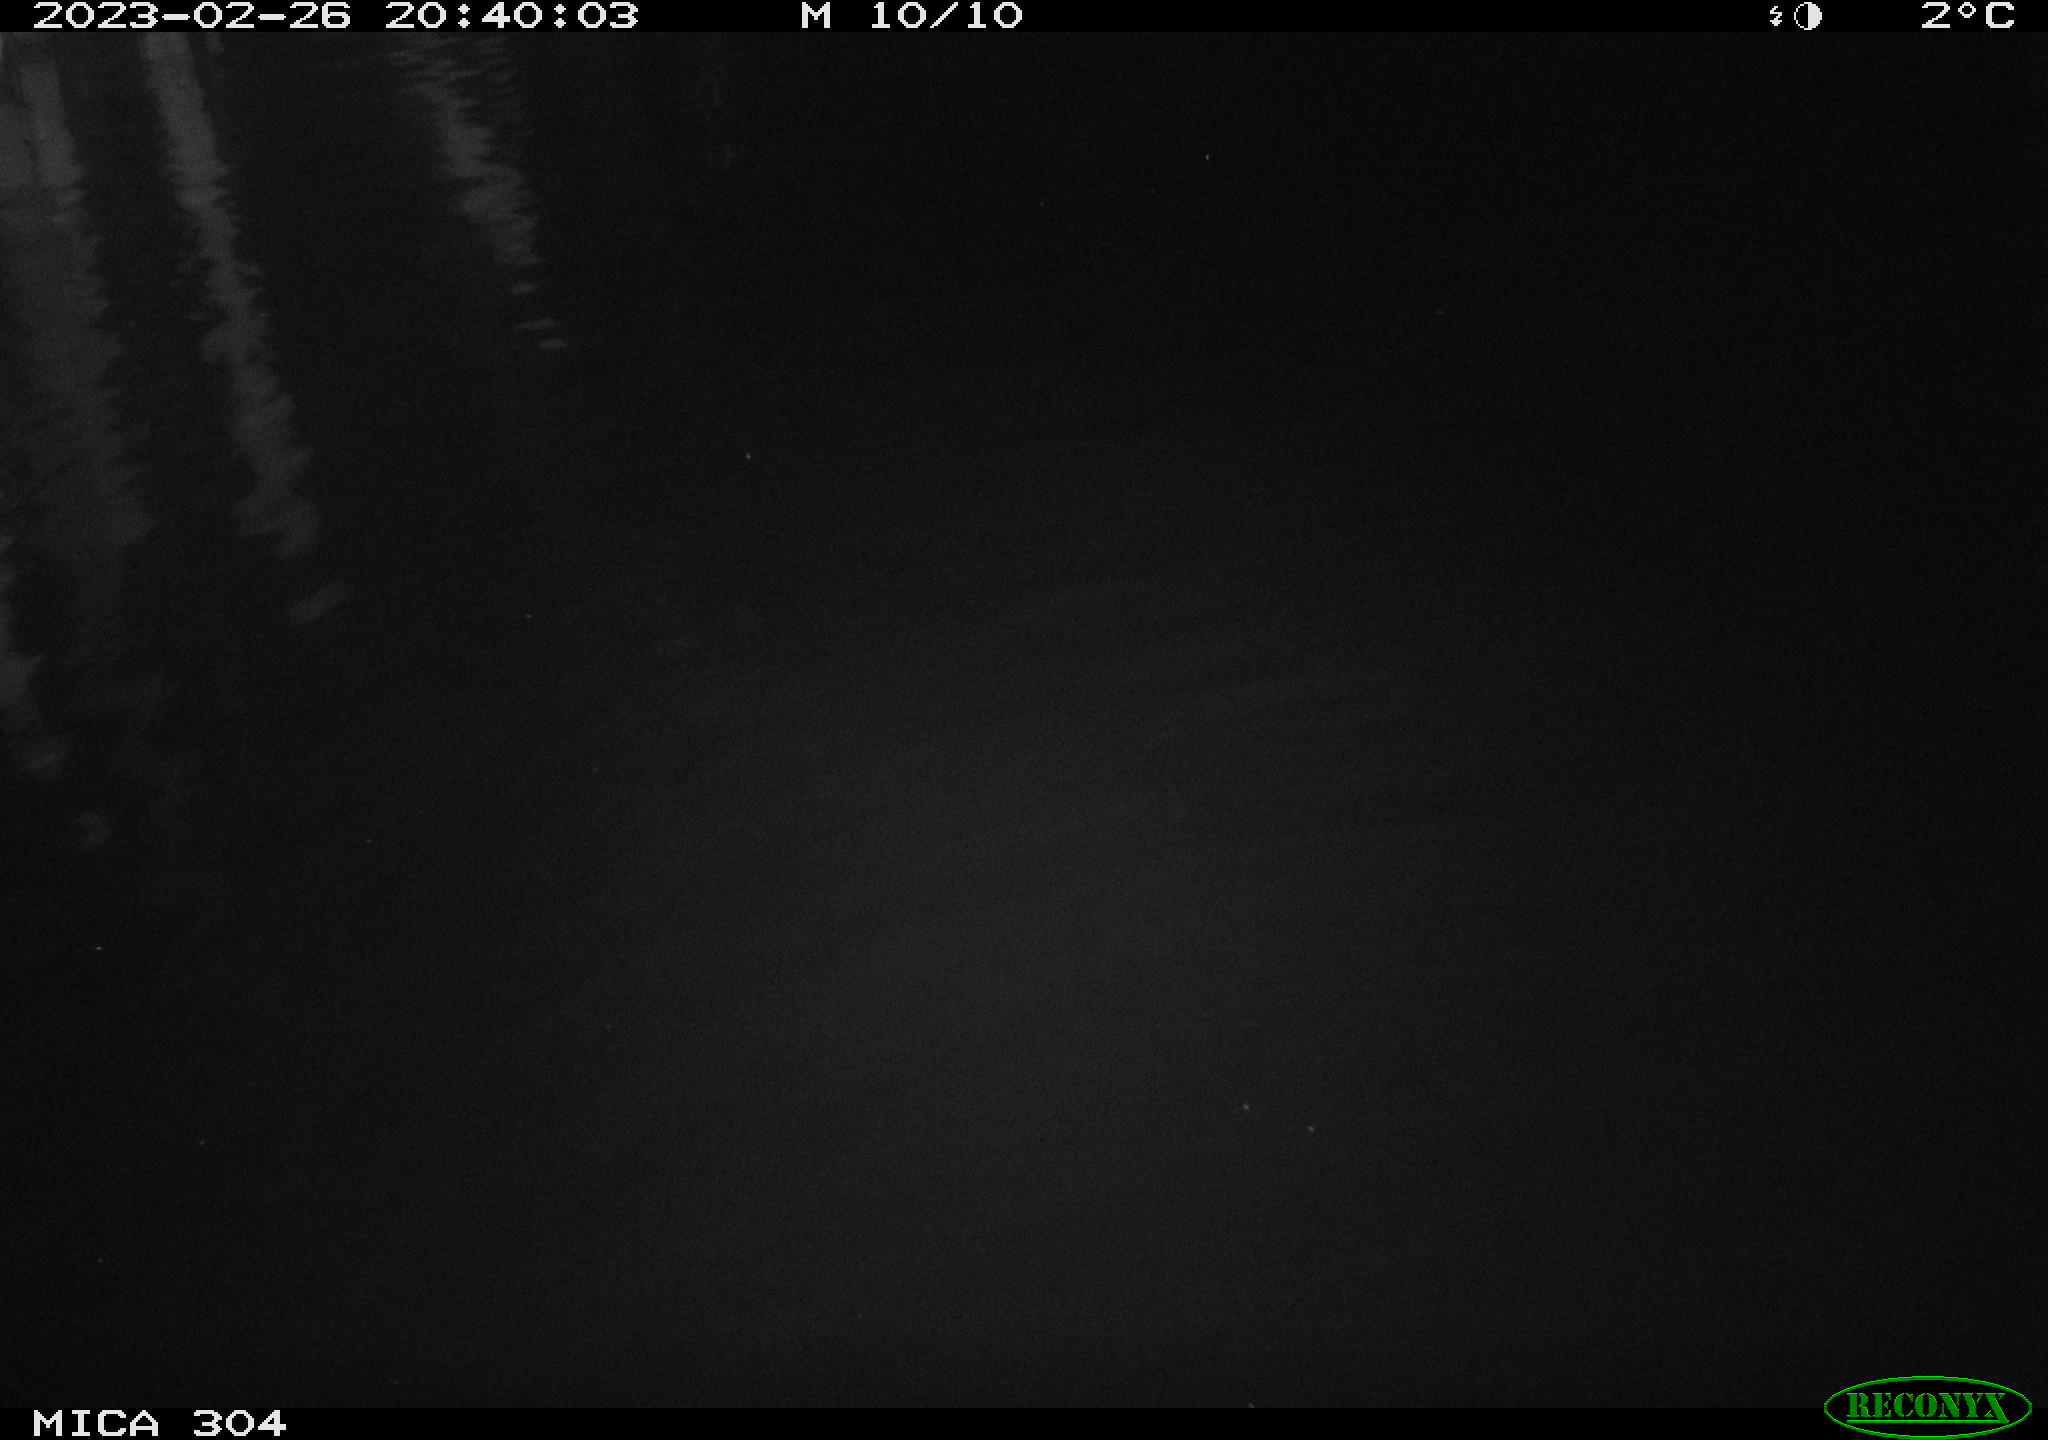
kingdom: Animalia
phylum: Chordata
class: Mammalia
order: Rodentia
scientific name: Rodentia
